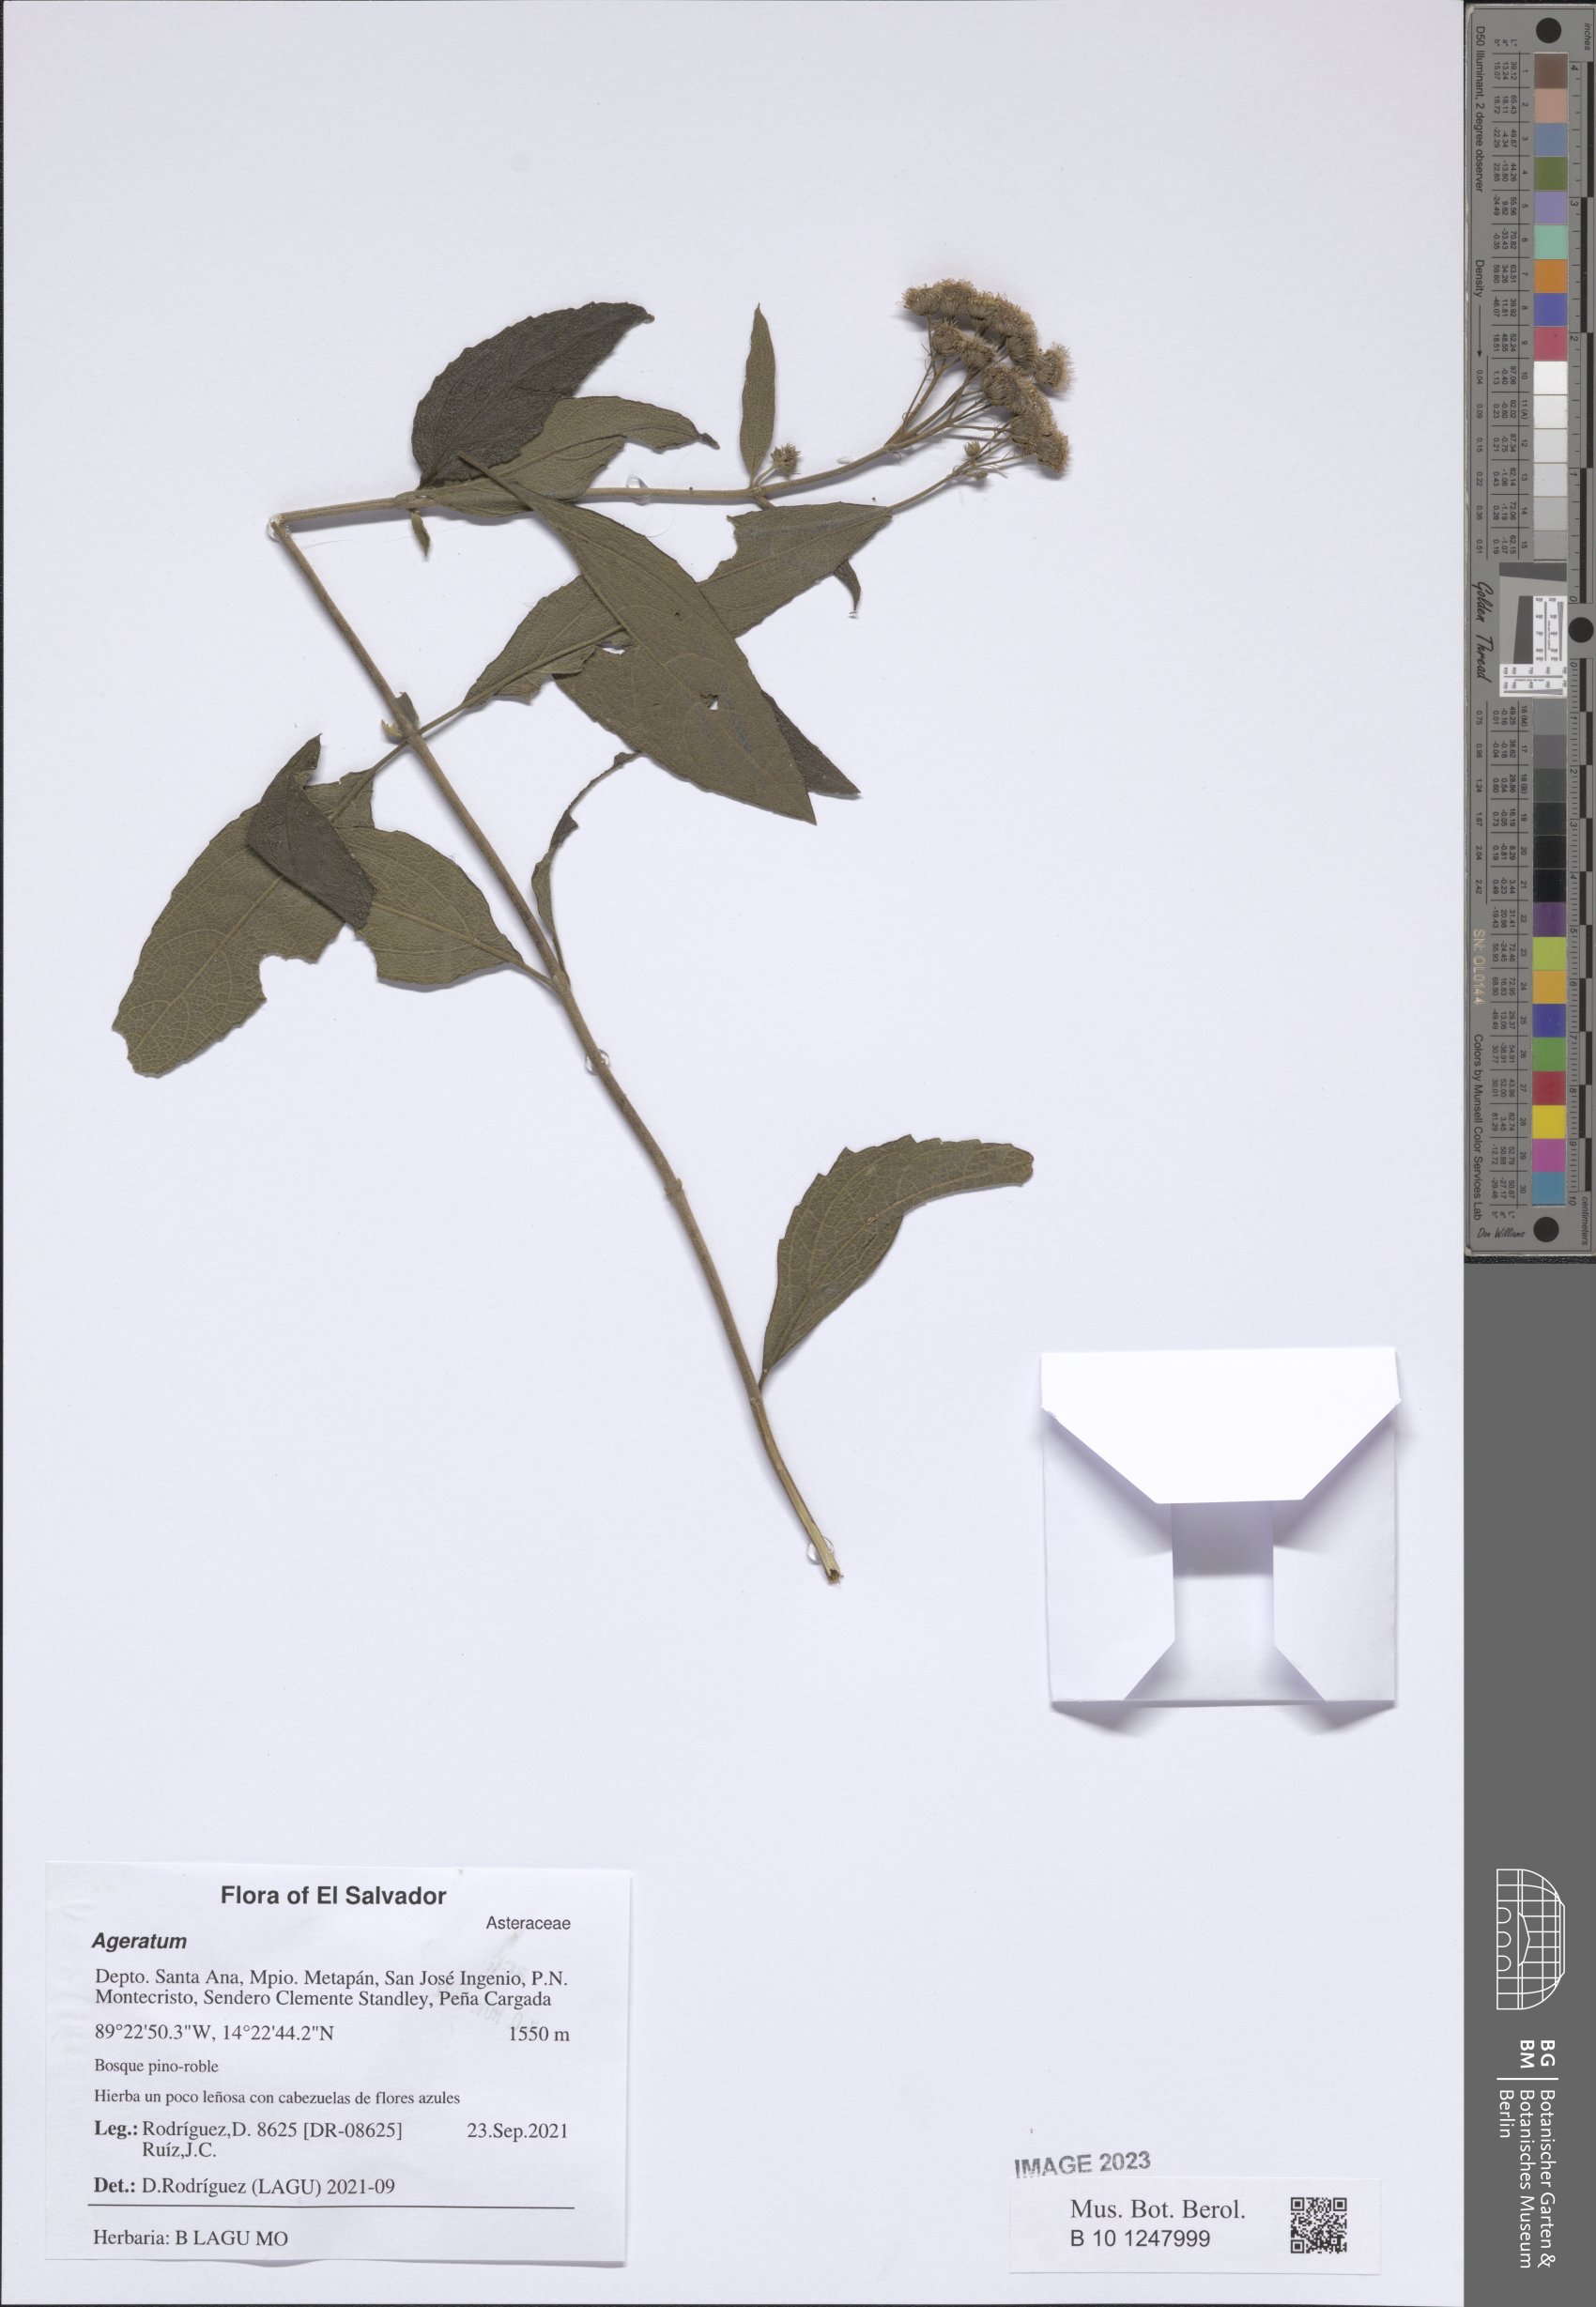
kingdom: Plantae
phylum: Tracheophyta
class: Magnoliopsida
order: Asterales
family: Asteraceae
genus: Ageratum
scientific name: Ageratum
